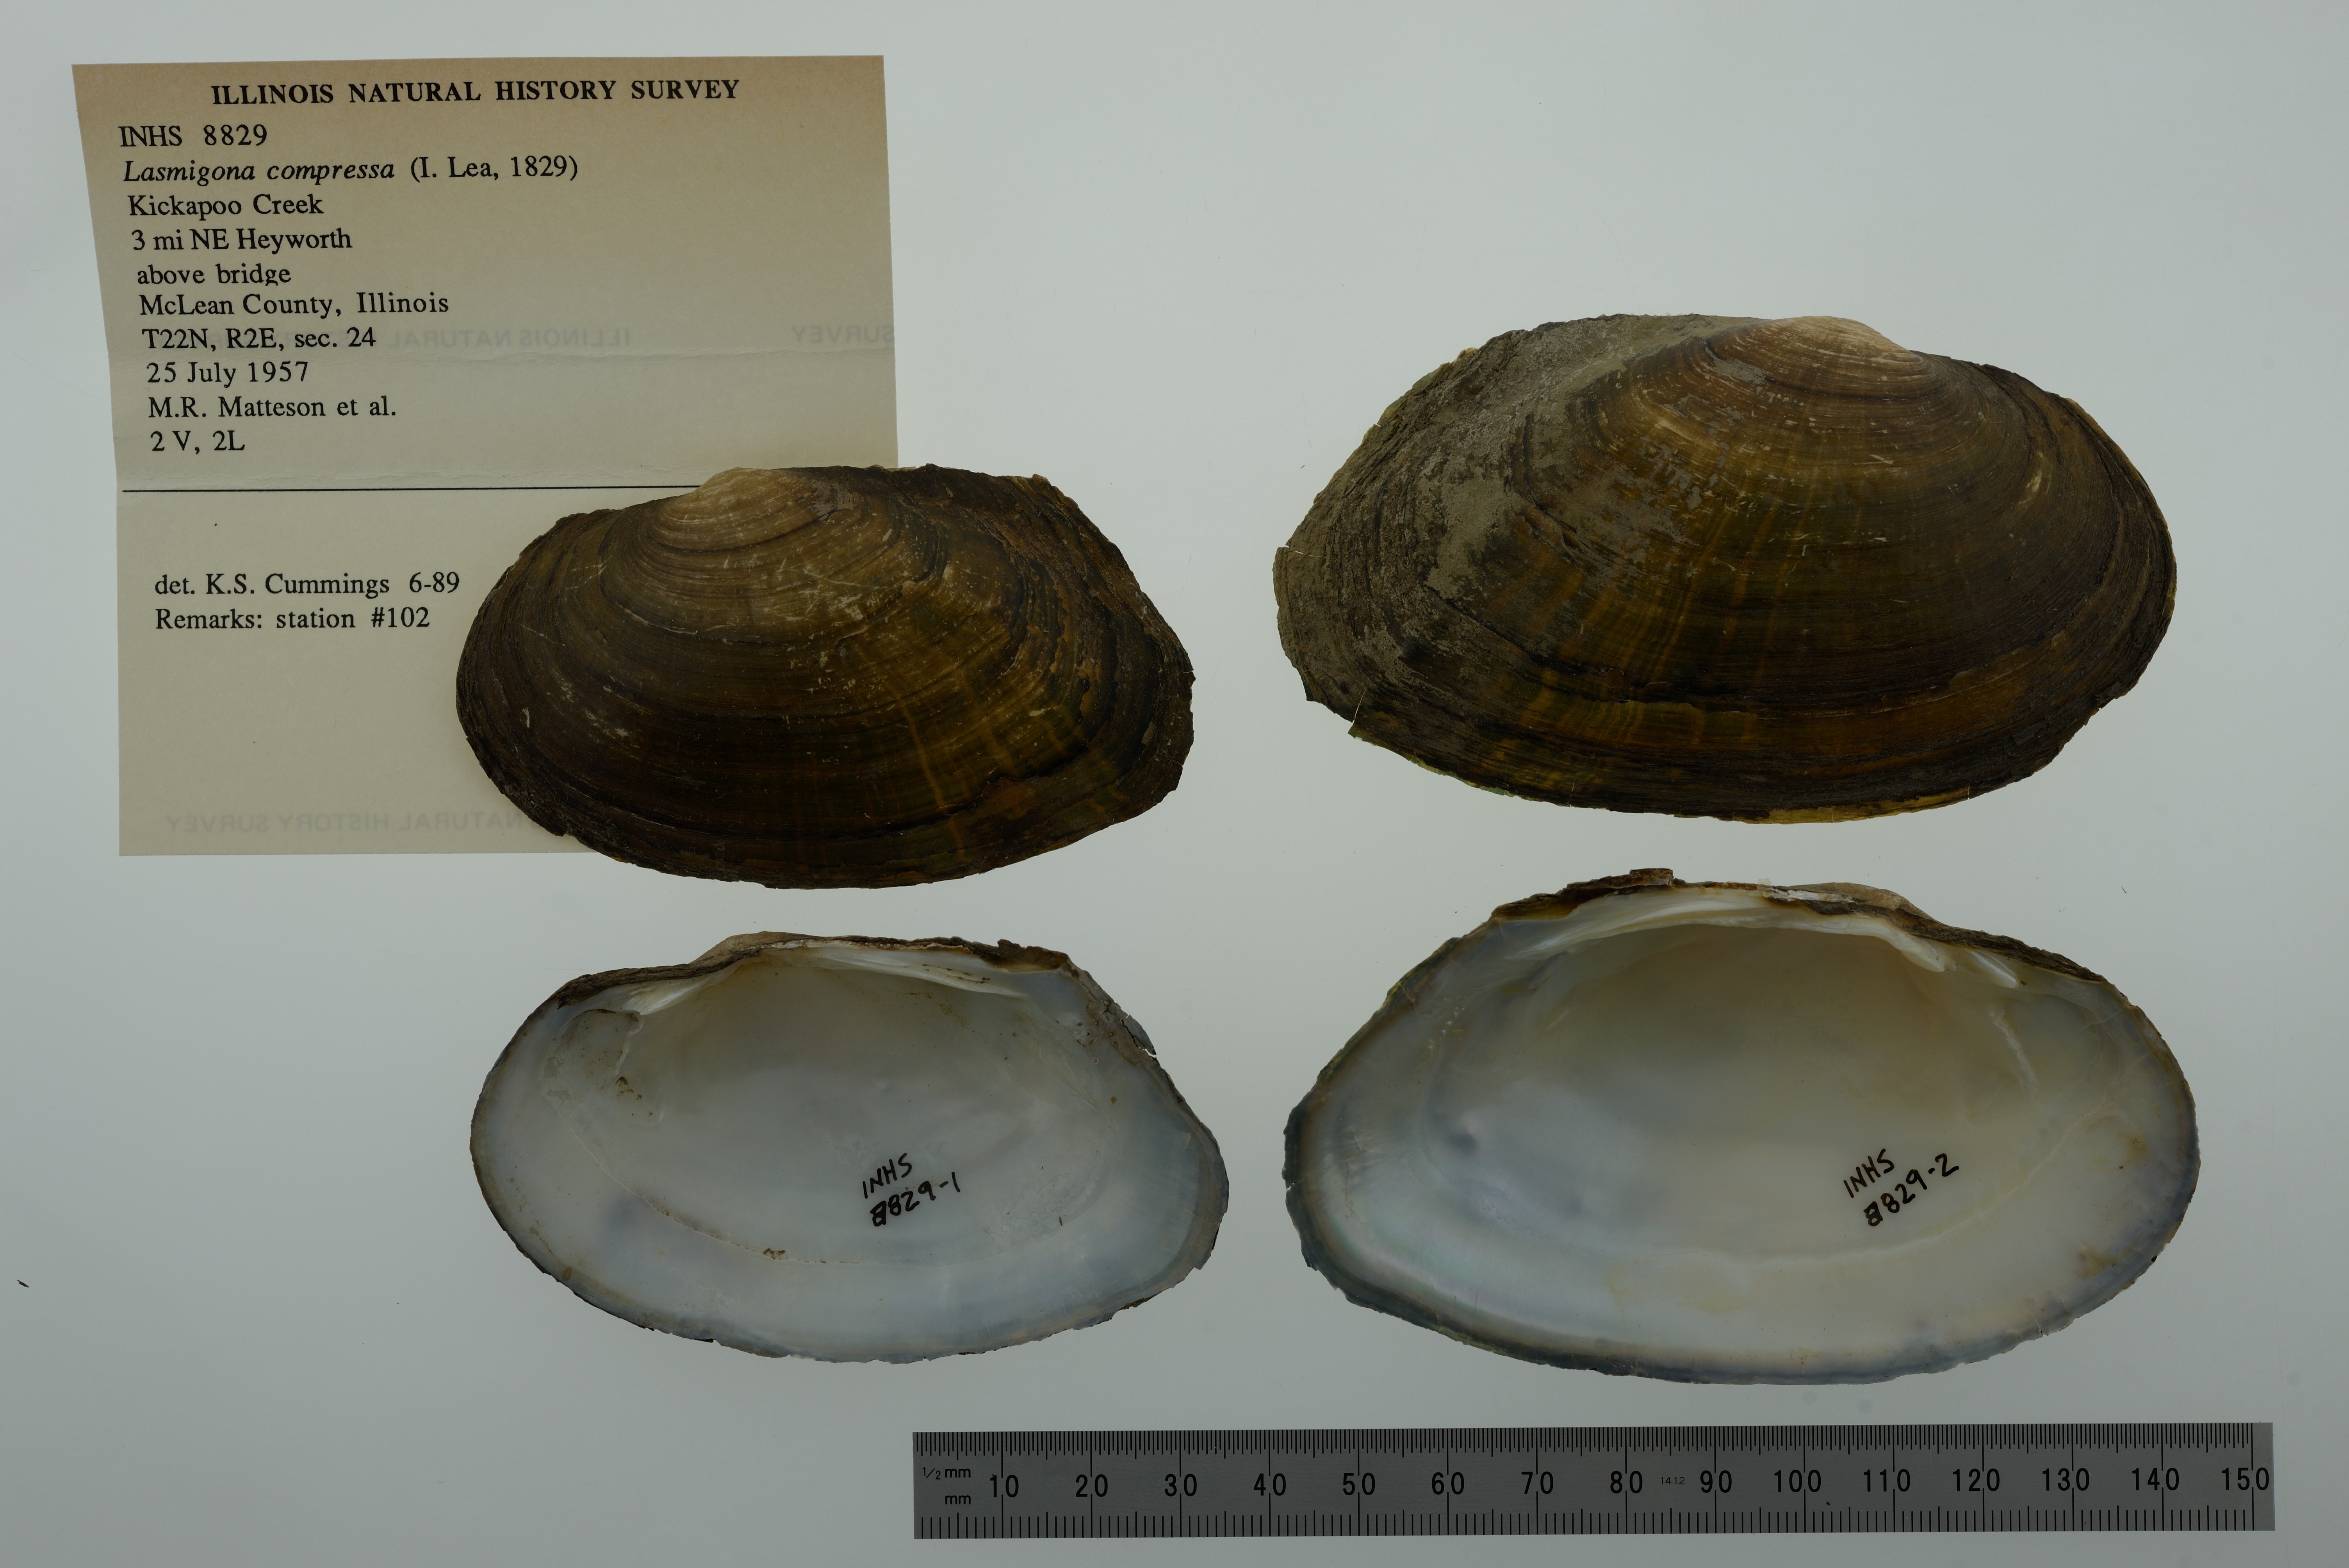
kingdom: Animalia
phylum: Mollusca
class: Bivalvia
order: Unionida
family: Unionidae
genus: Lasmigona
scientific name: Lasmigona compressa
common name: Creek heelsplitter
